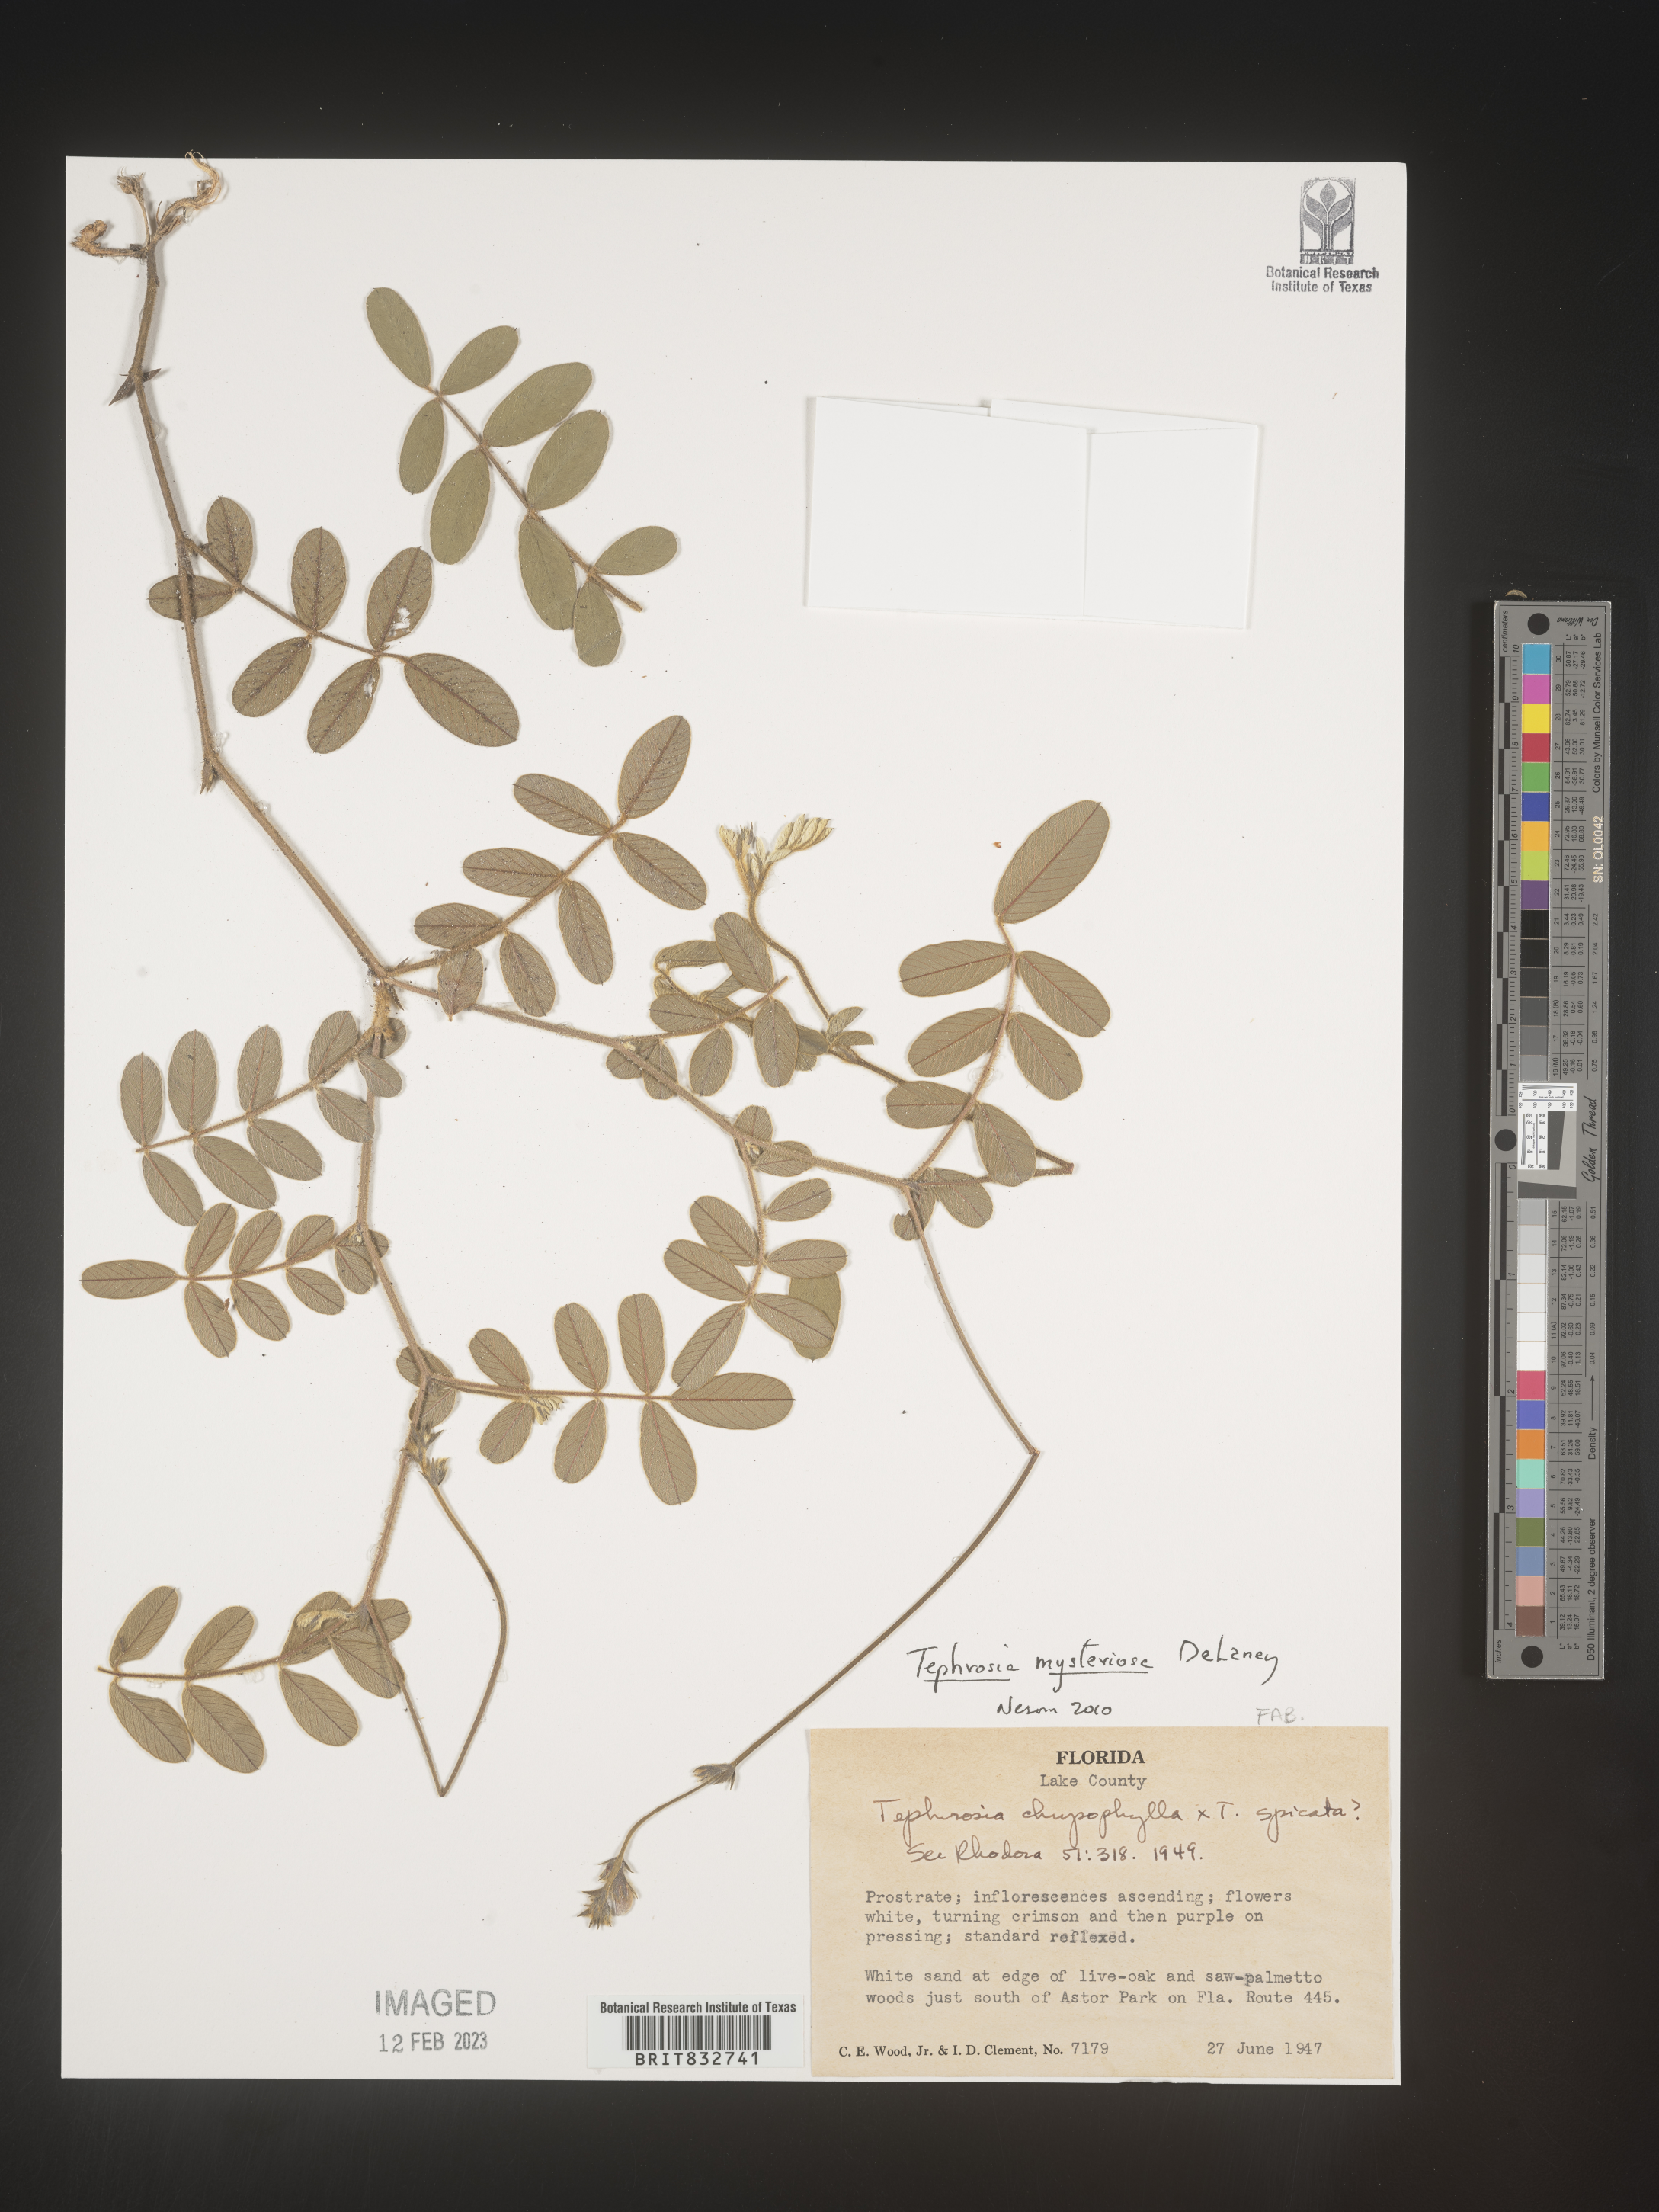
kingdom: Plantae
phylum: Tracheophyta
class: Magnoliopsida
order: Fabales
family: Fabaceae
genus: Tephrosia
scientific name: Tephrosia mysteriosa
